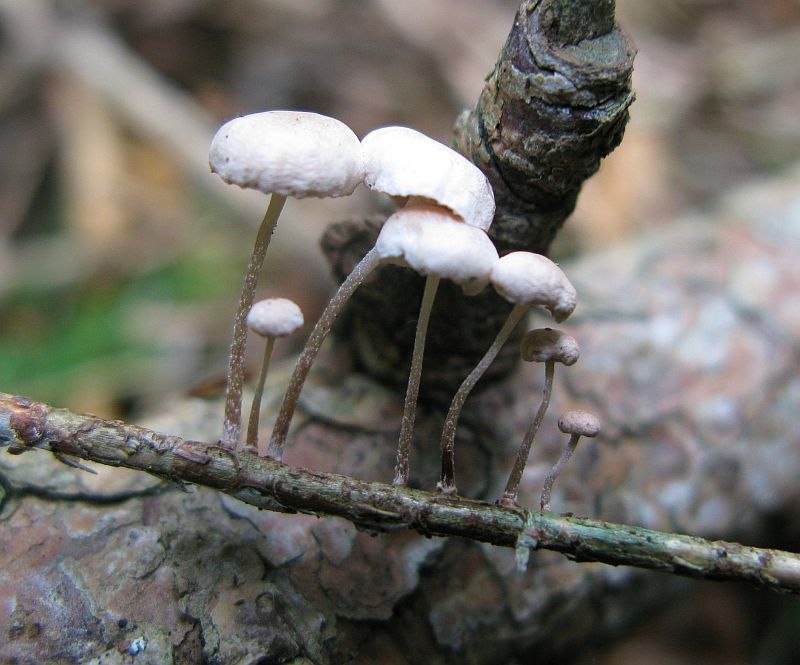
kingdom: Fungi
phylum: Basidiomycota
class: Agaricomycetes
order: Agaricales
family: Omphalotaceae
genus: Collybiopsis
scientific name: Collybiopsis ramealis
